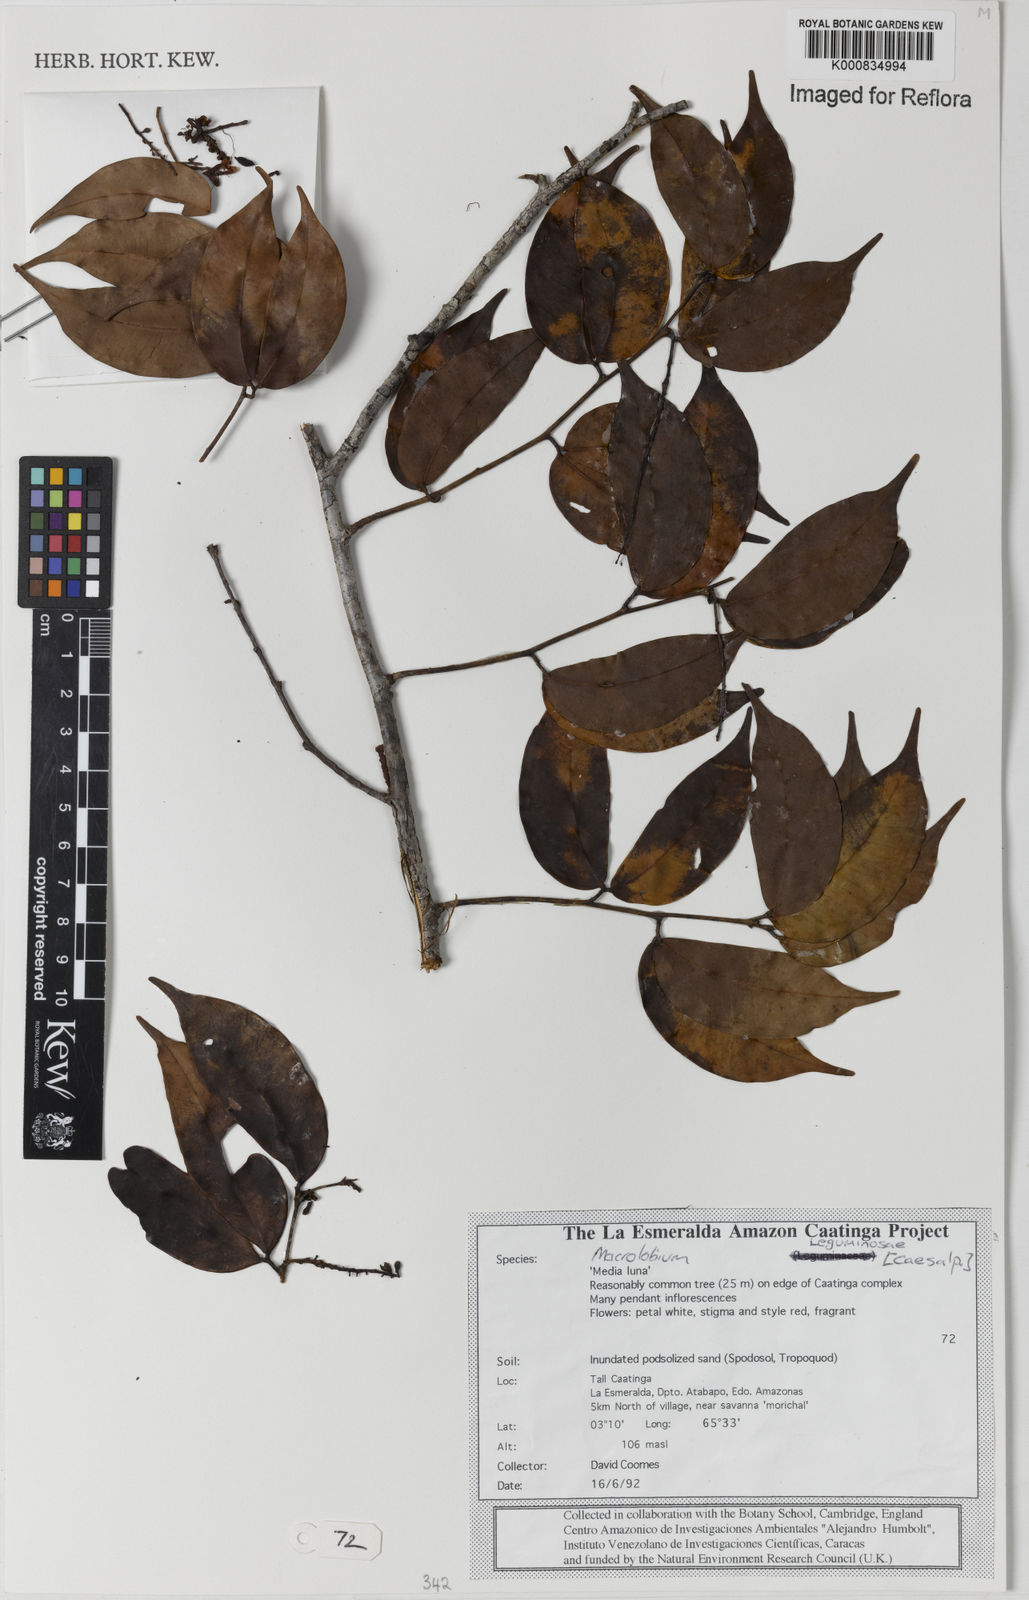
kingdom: Plantae
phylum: Tracheophyta
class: Magnoliopsida
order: Fabales
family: Fabaceae
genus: Macrolobium
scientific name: Macrolobium
